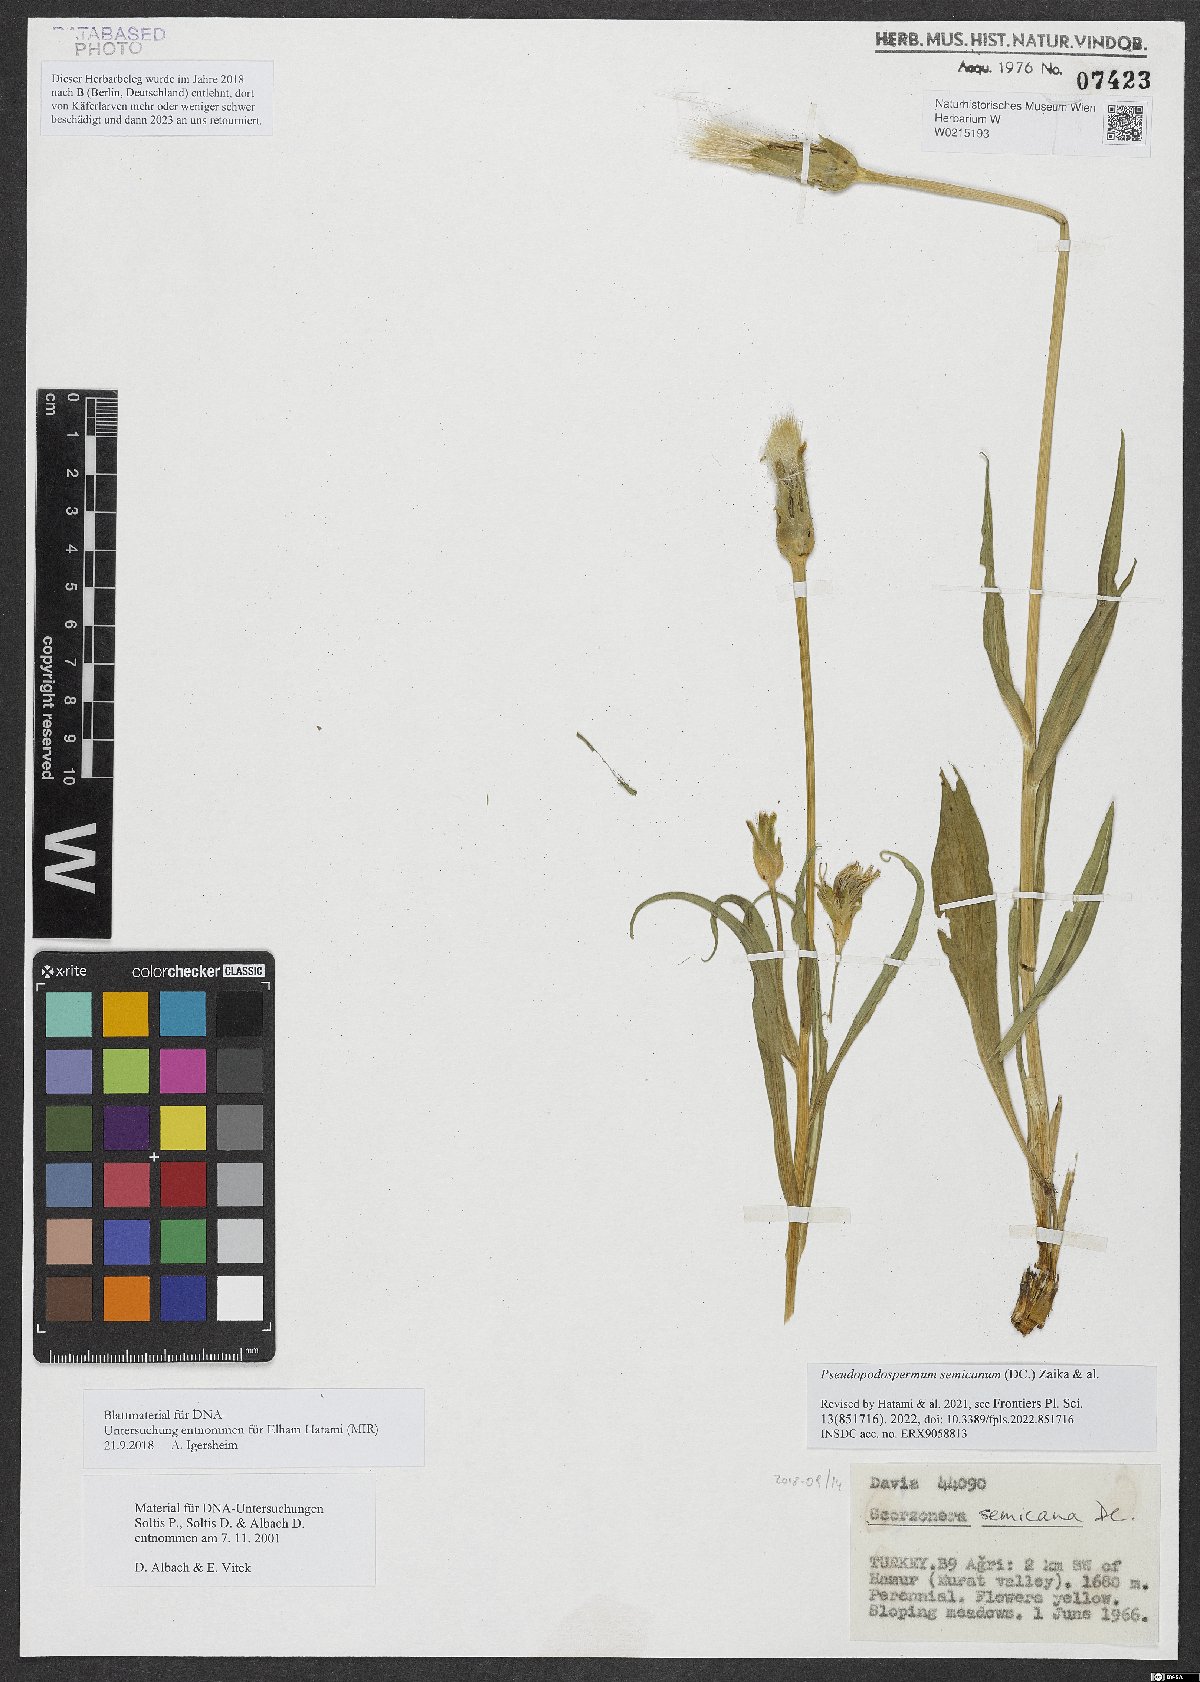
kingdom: Plantae
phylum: Tracheophyta
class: Magnoliopsida
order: Asterales
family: Asteraceae
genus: Pseudopodospermum
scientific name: Pseudopodospermum semicanum
